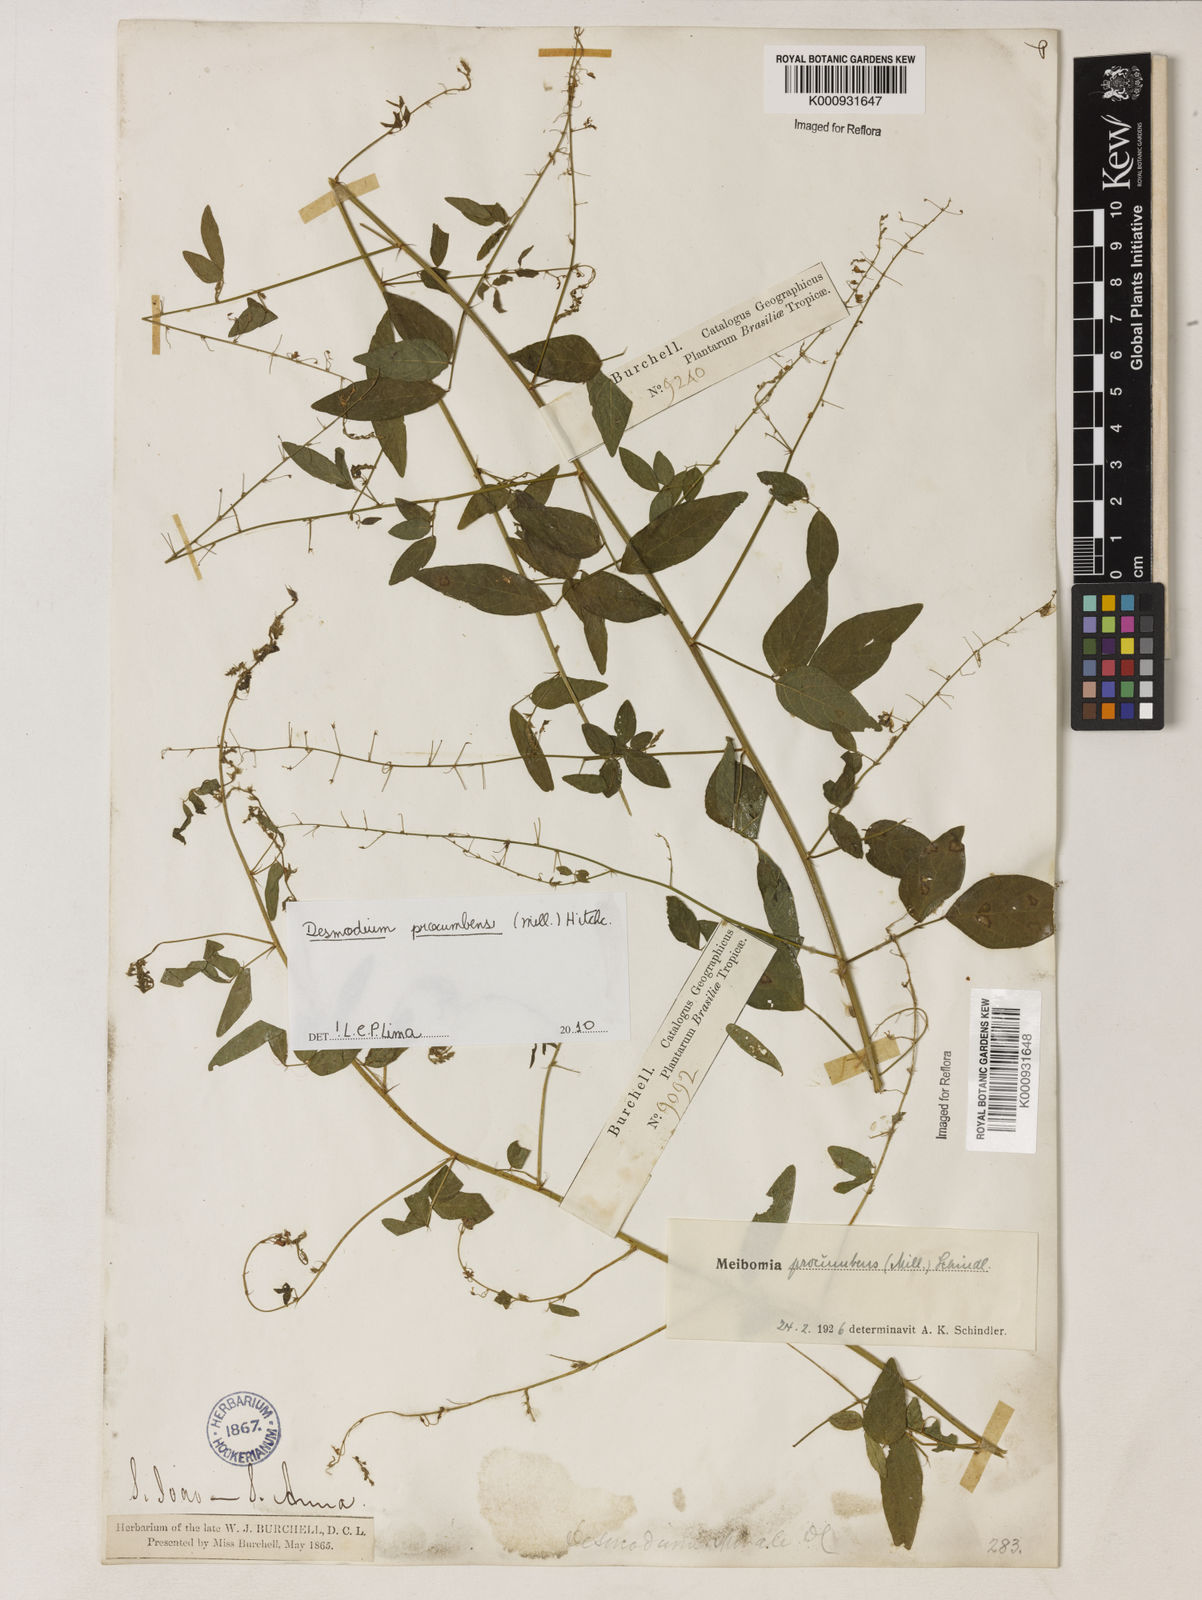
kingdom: Plantae
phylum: Tracheophyta
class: Magnoliopsida
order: Fabales
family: Fabaceae
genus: Desmodium
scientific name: Desmodium procumbens
